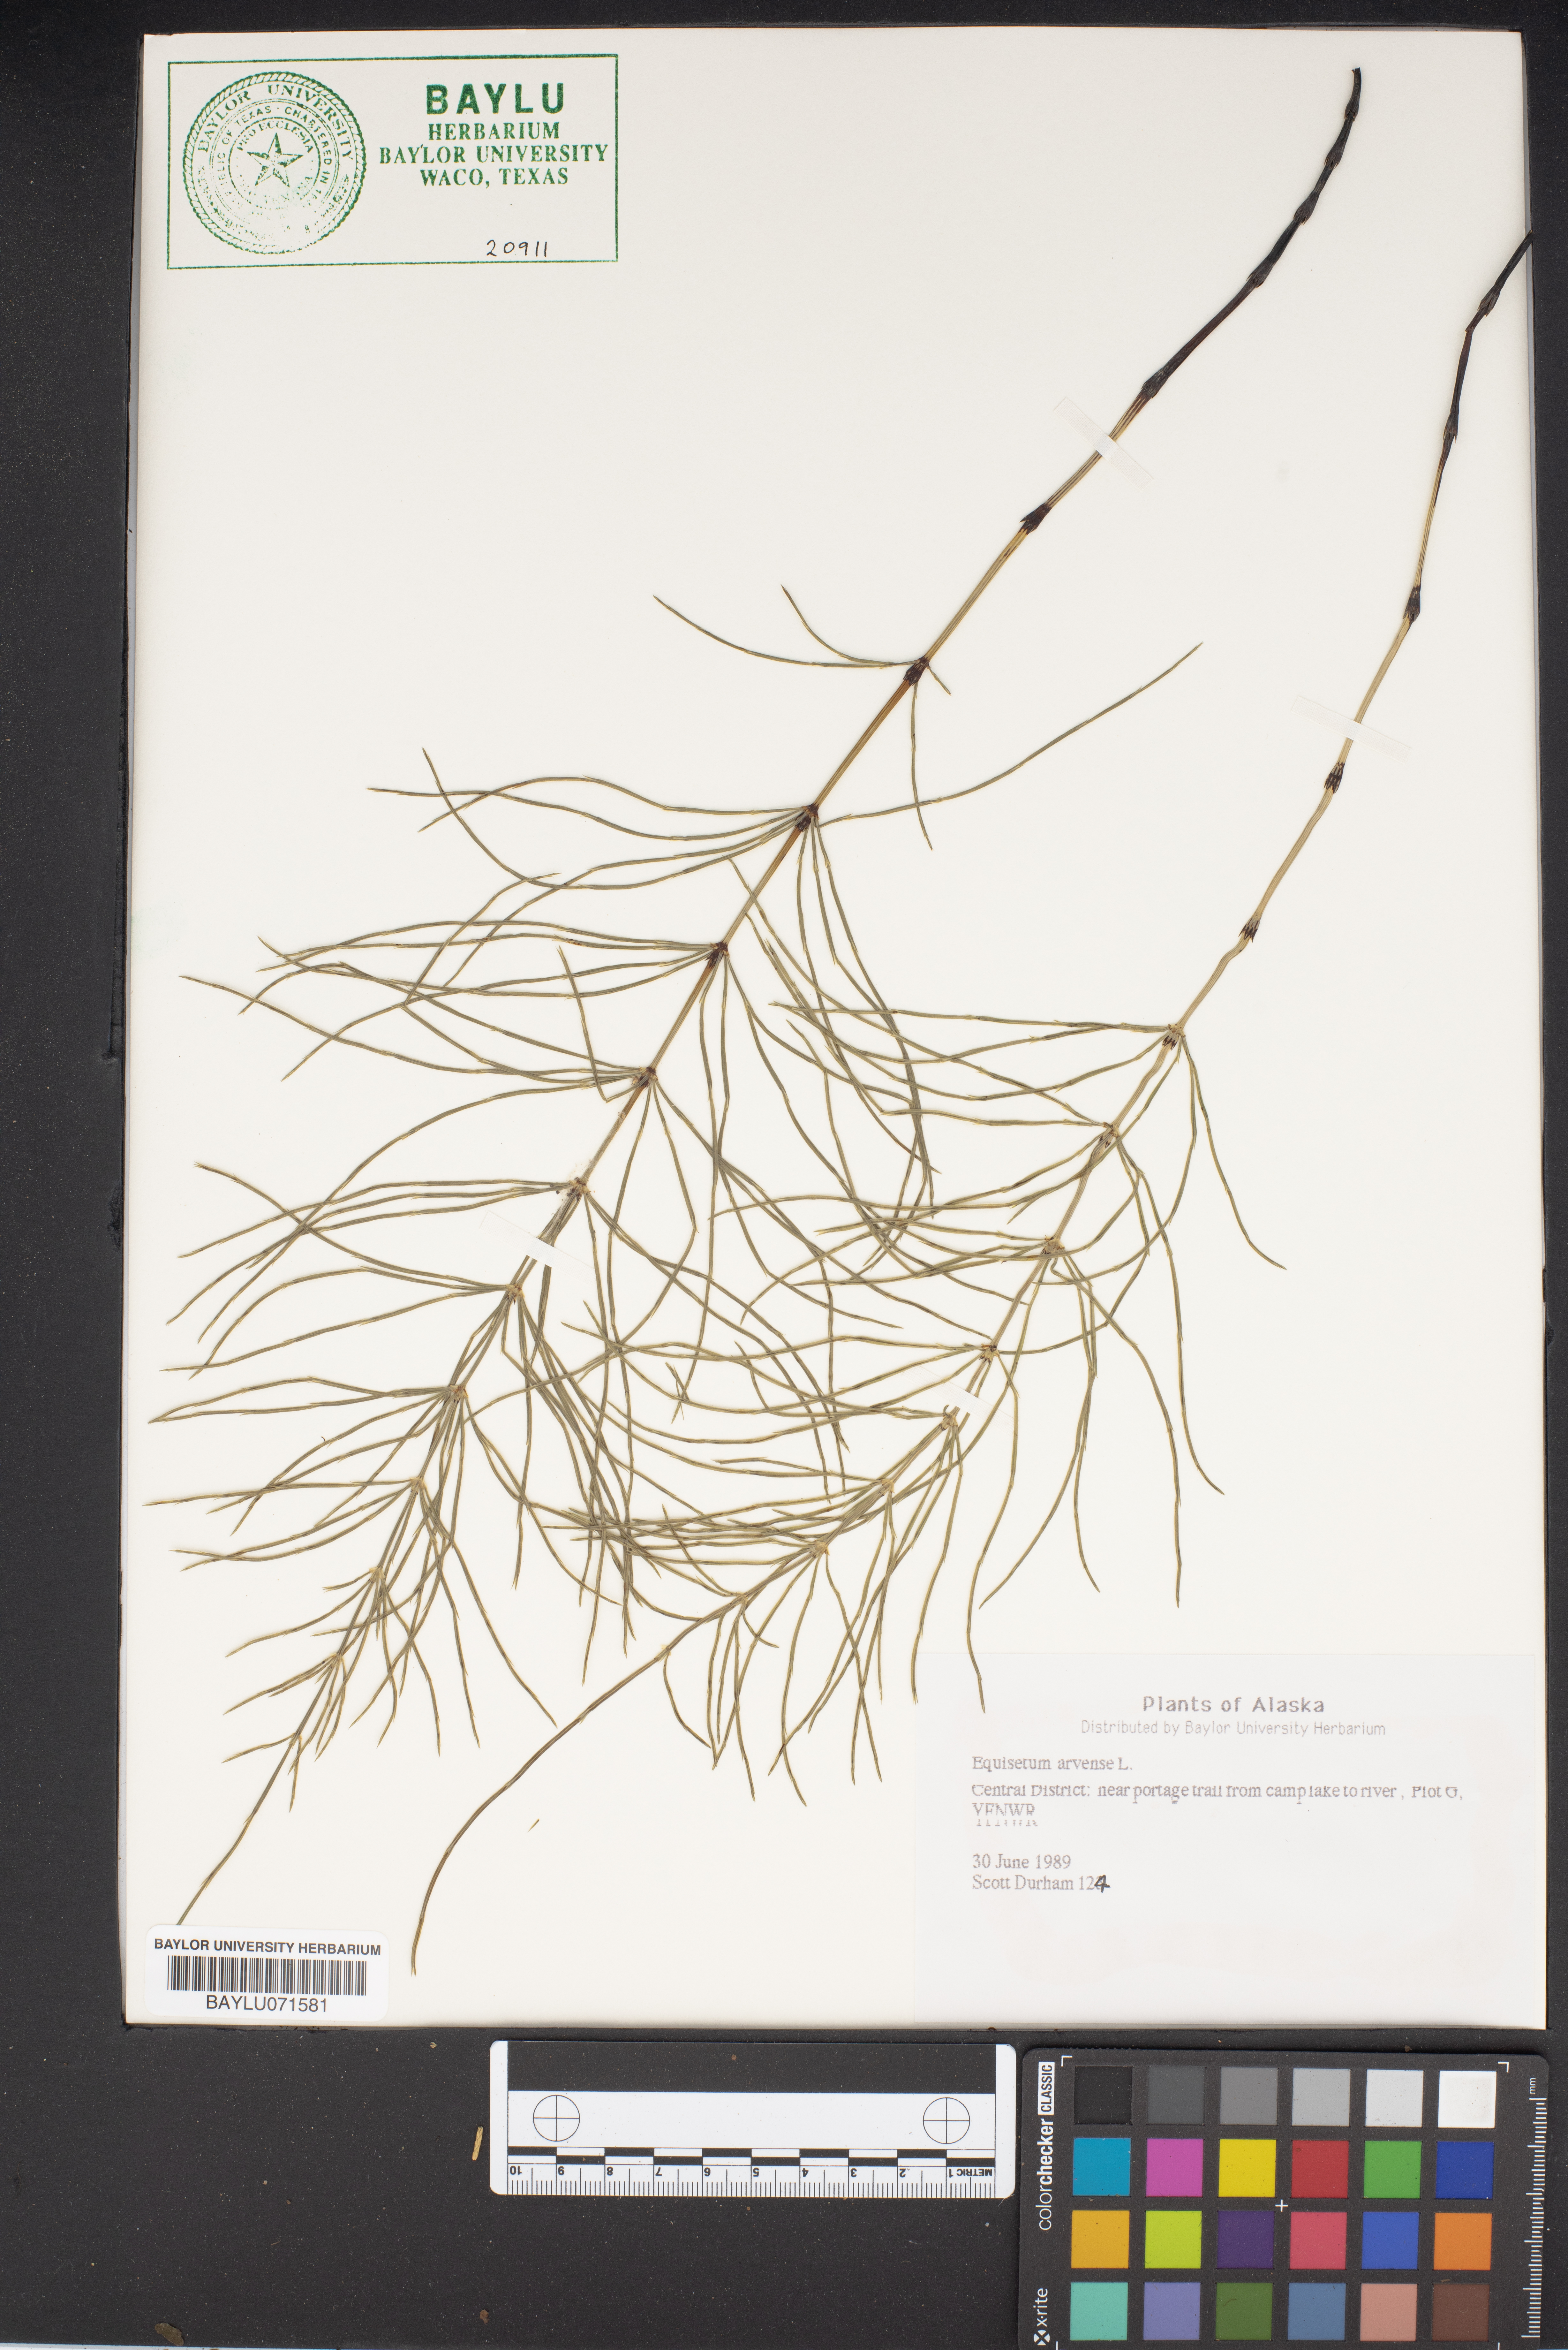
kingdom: Plantae
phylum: Tracheophyta
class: Polypodiopsida
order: Equisetales
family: Equisetaceae
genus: Equisetum
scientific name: Equisetum arvense
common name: Field horsetail
